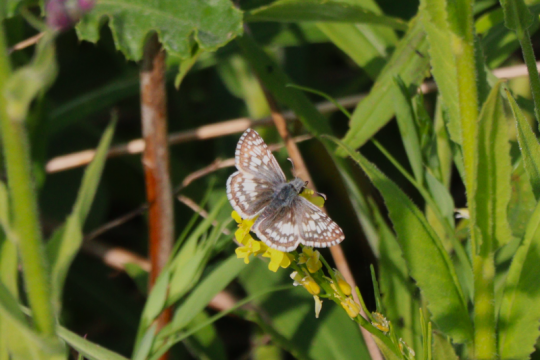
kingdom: Animalia
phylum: Arthropoda
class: Insecta
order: Lepidoptera
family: Hesperiidae
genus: Pyrgus
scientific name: Pyrgus communis
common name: Common Checkered-Skipper
